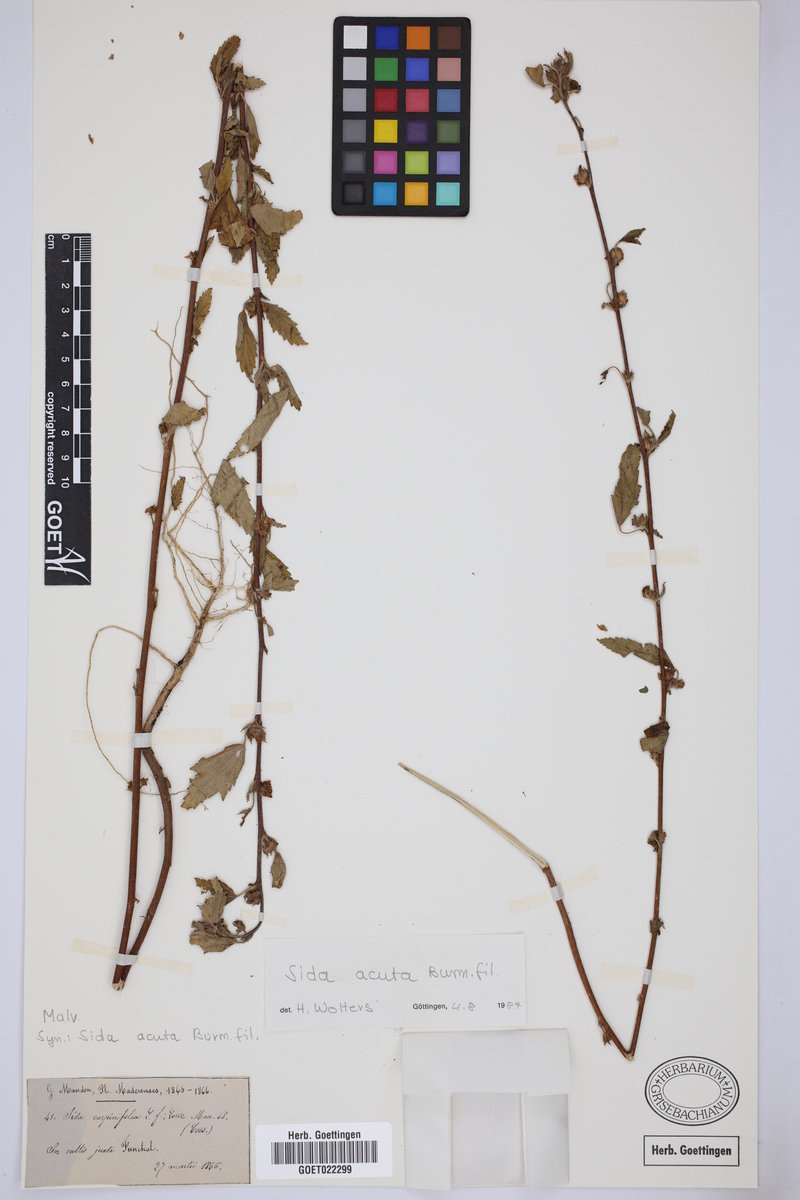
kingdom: Plantae
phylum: Tracheophyta
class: Magnoliopsida
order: Malvales
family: Malvaceae
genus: Sida
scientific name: Sida acuta
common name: Common wireweed
